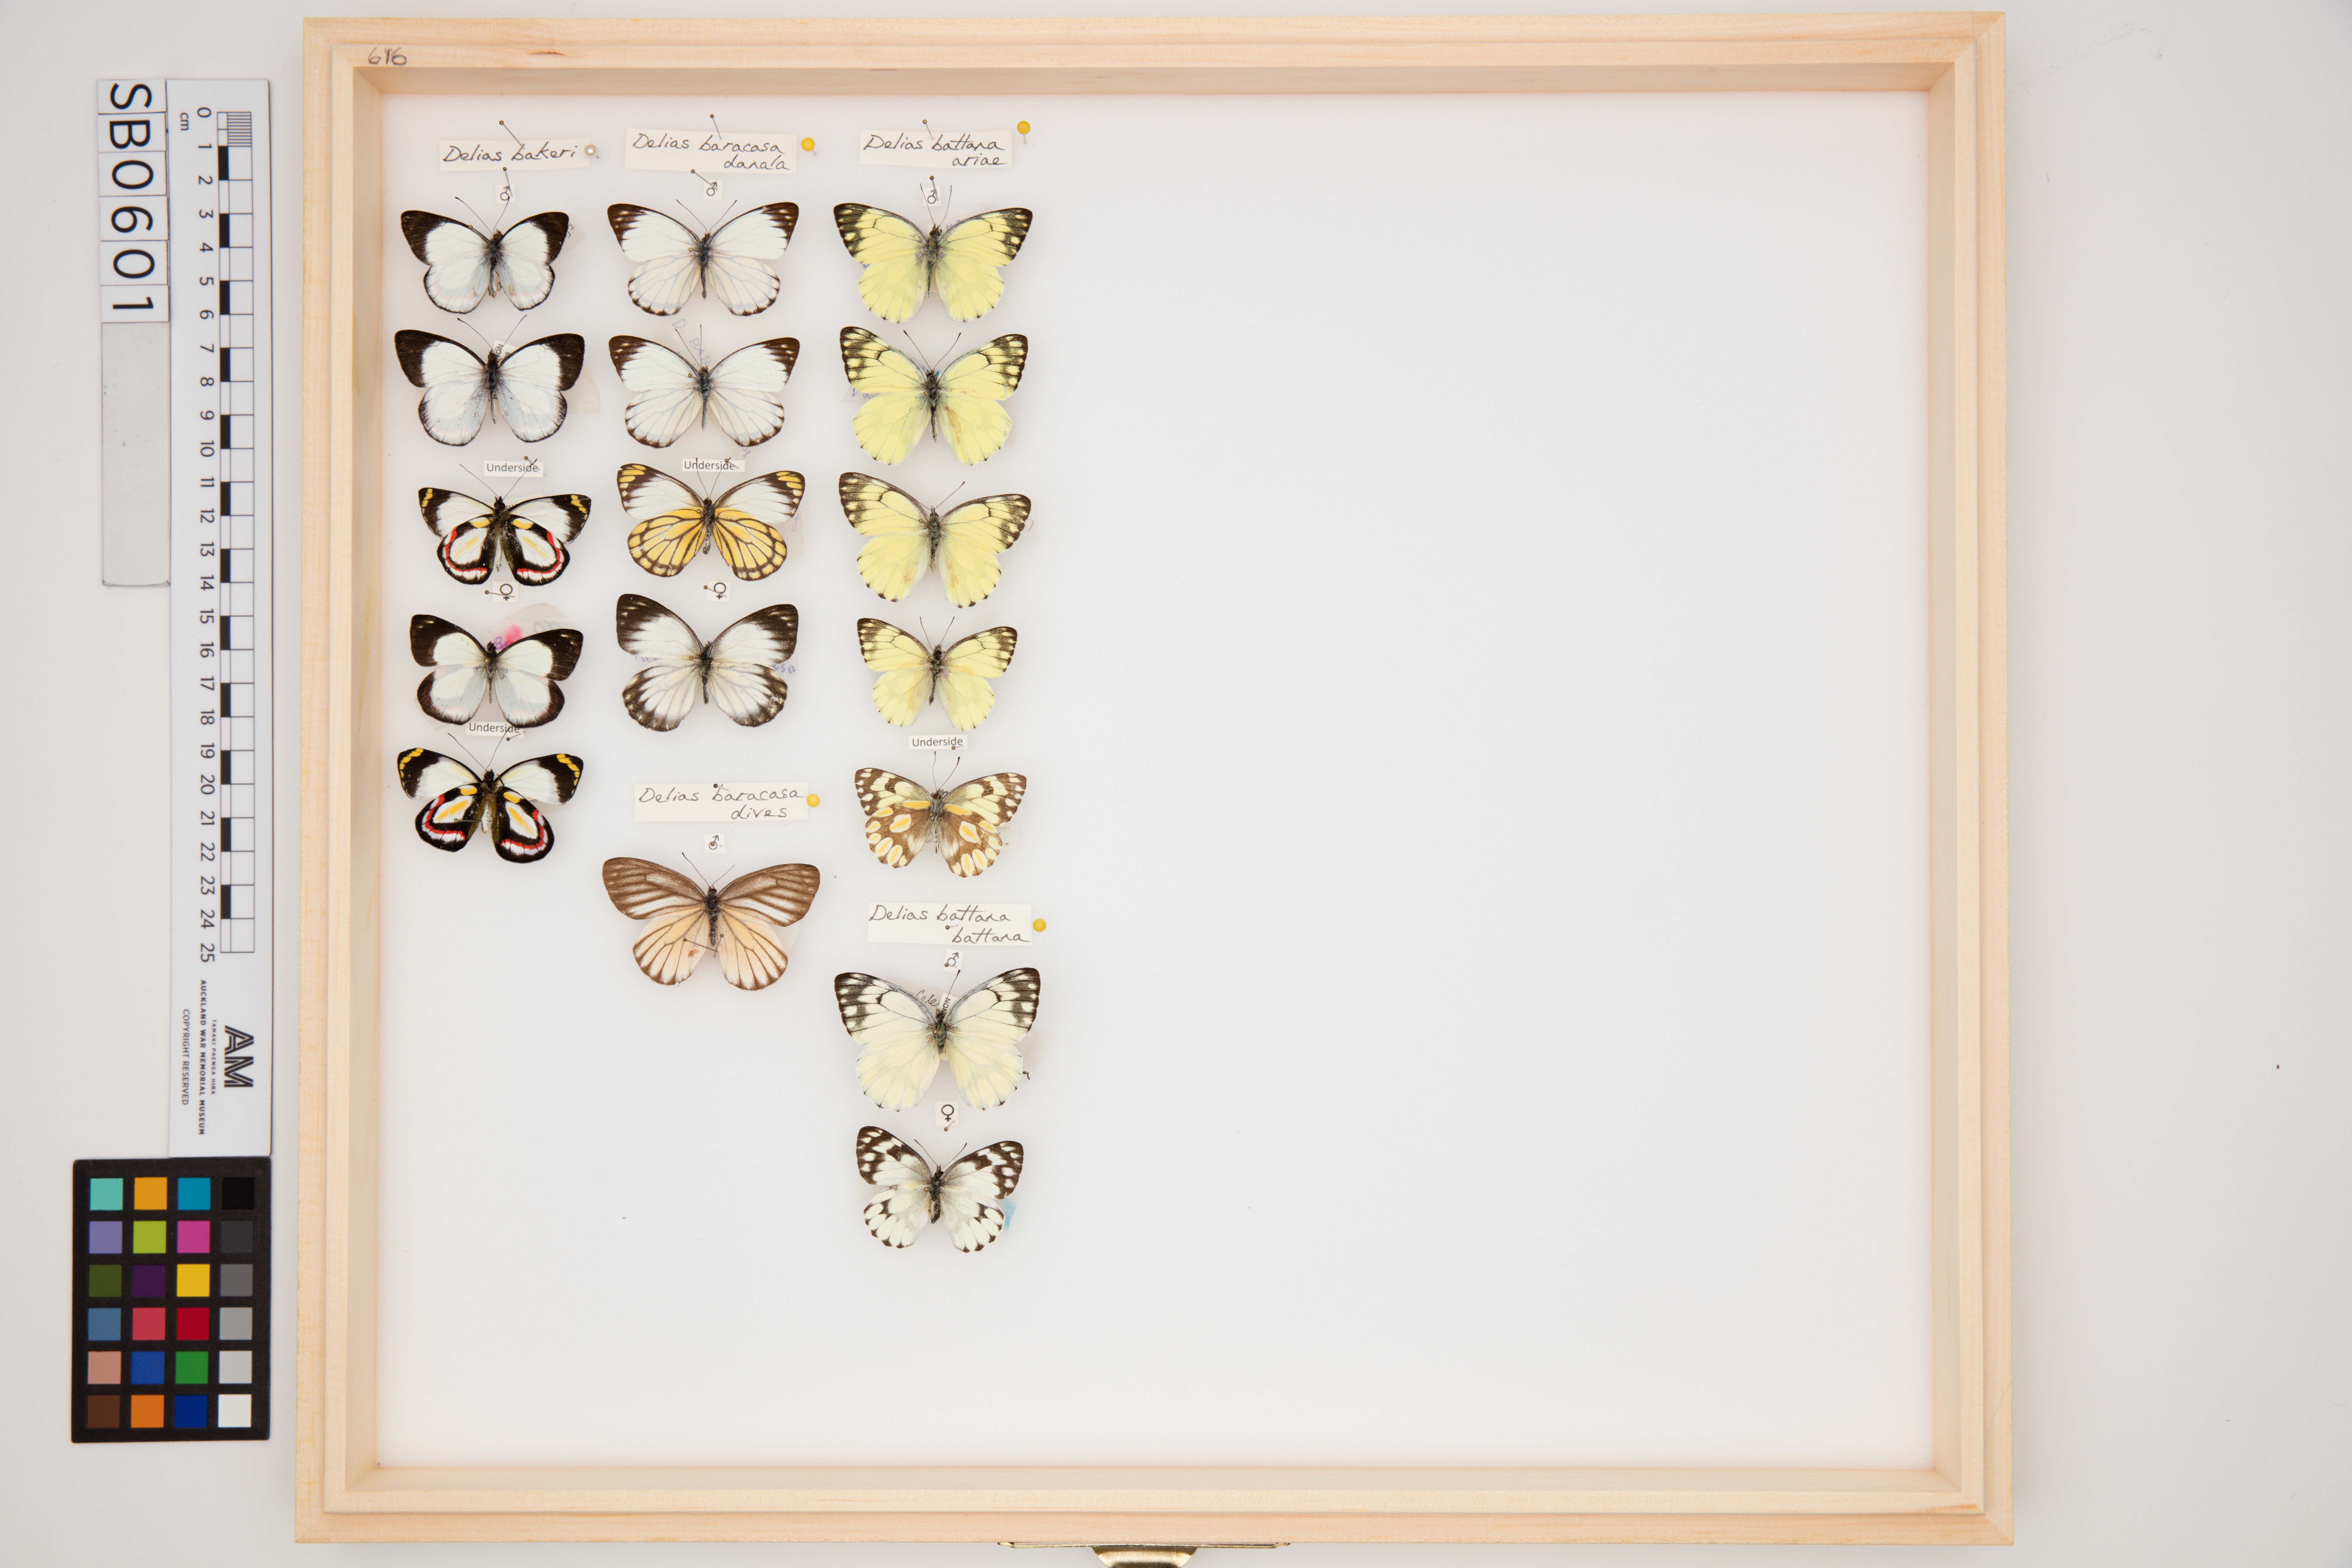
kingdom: Animalia
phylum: Arthropoda
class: Insecta
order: Lepidoptera
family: Pieridae
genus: Delias
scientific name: Delias bakeri
